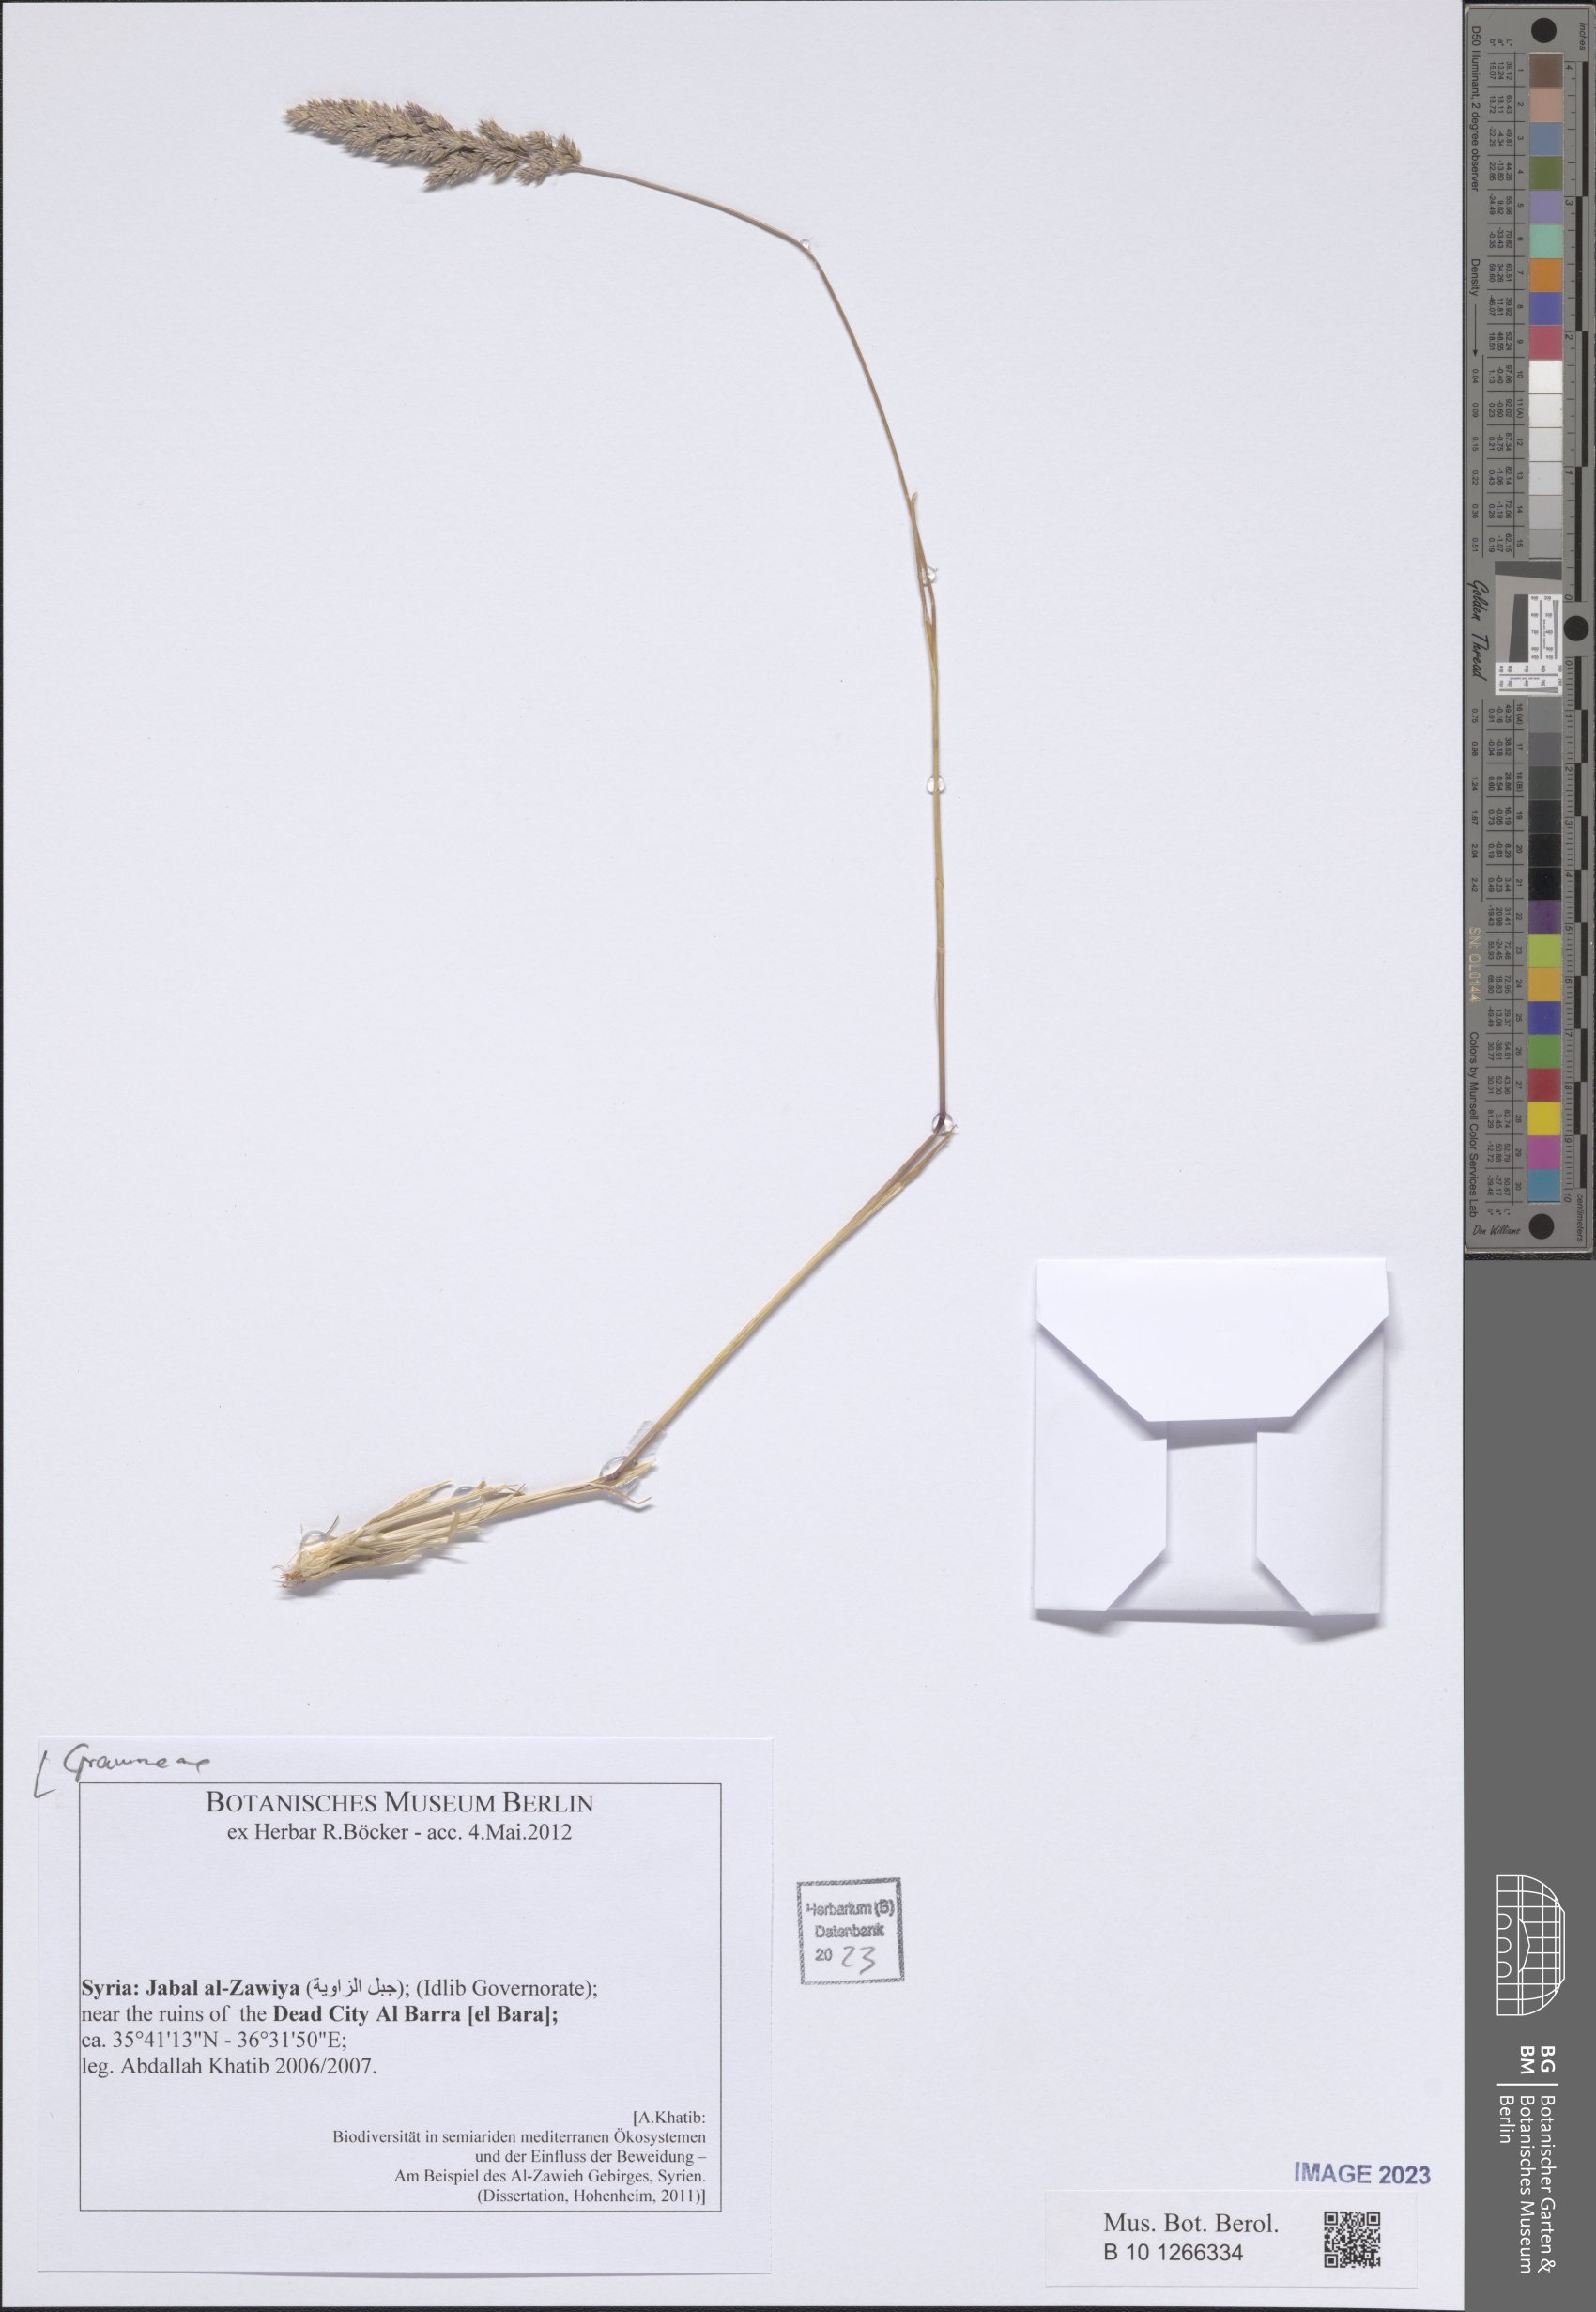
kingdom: Plantae
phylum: Tracheophyta
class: Liliopsida
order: Poales
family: Poaceae
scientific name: Poaceae
